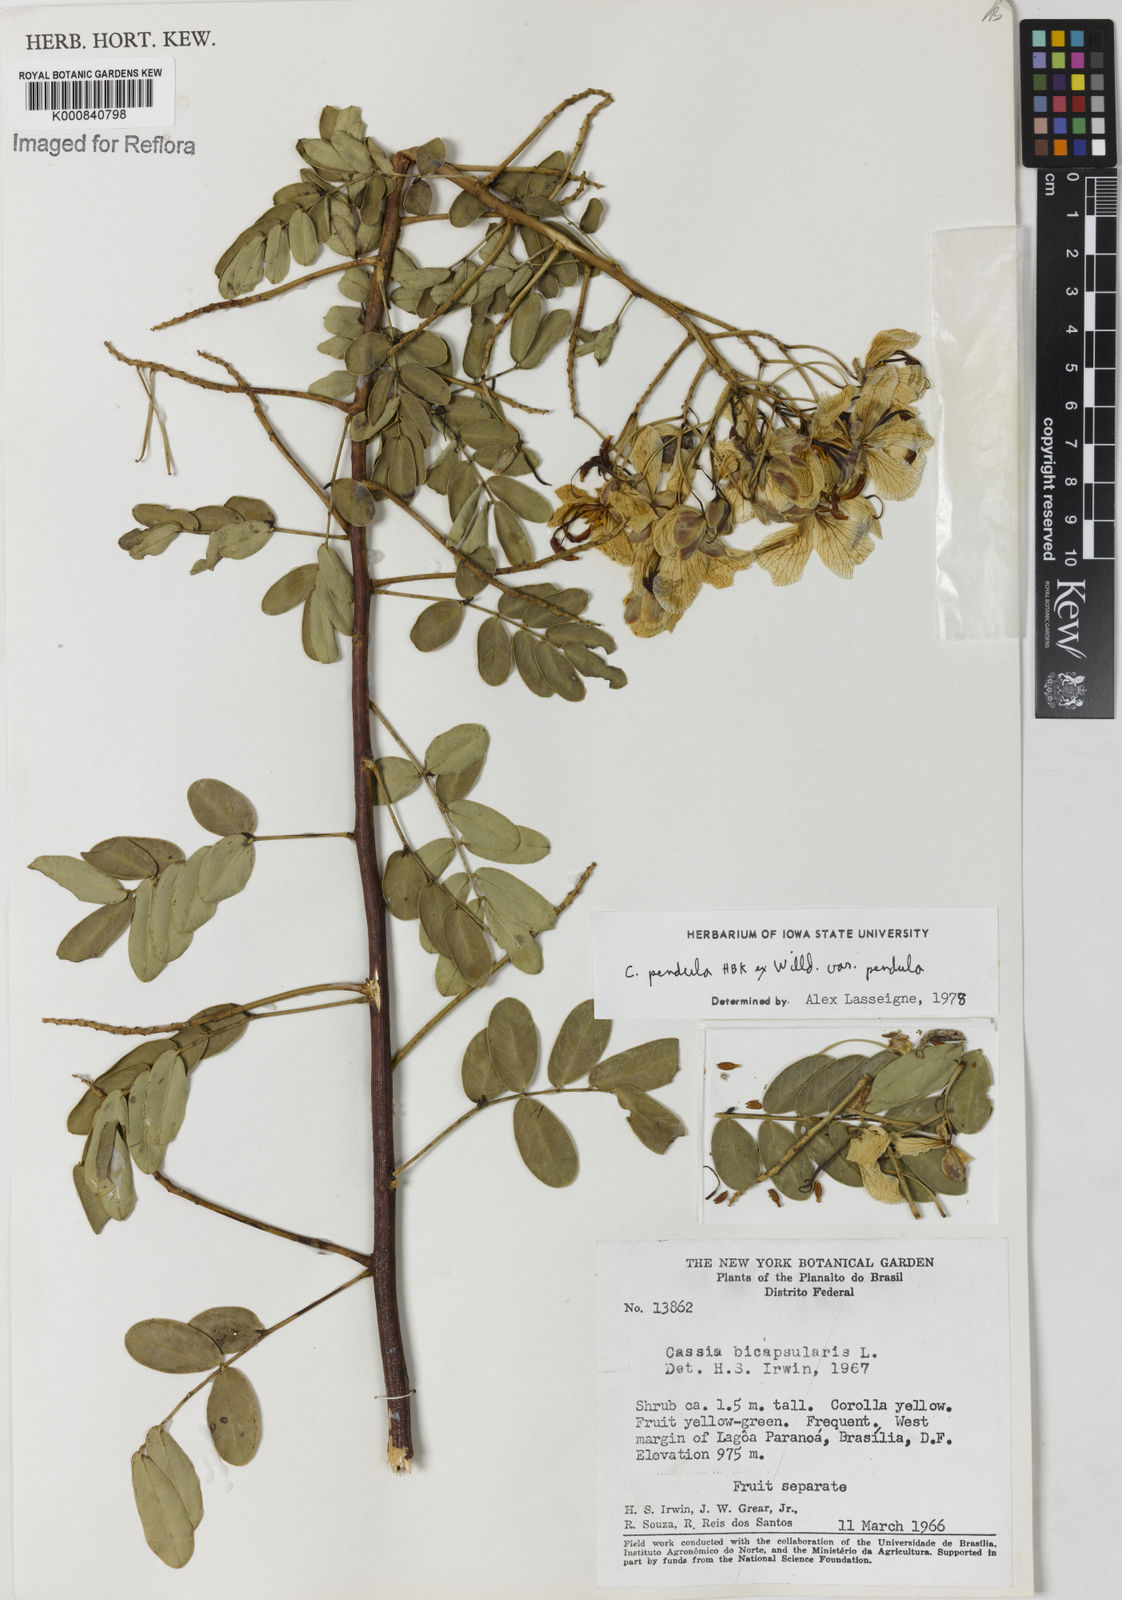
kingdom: Plantae
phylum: Tracheophyta
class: Magnoliopsida
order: Fabales
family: Fabaceae
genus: Senna
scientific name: Senna pendula
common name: Easter cassia
